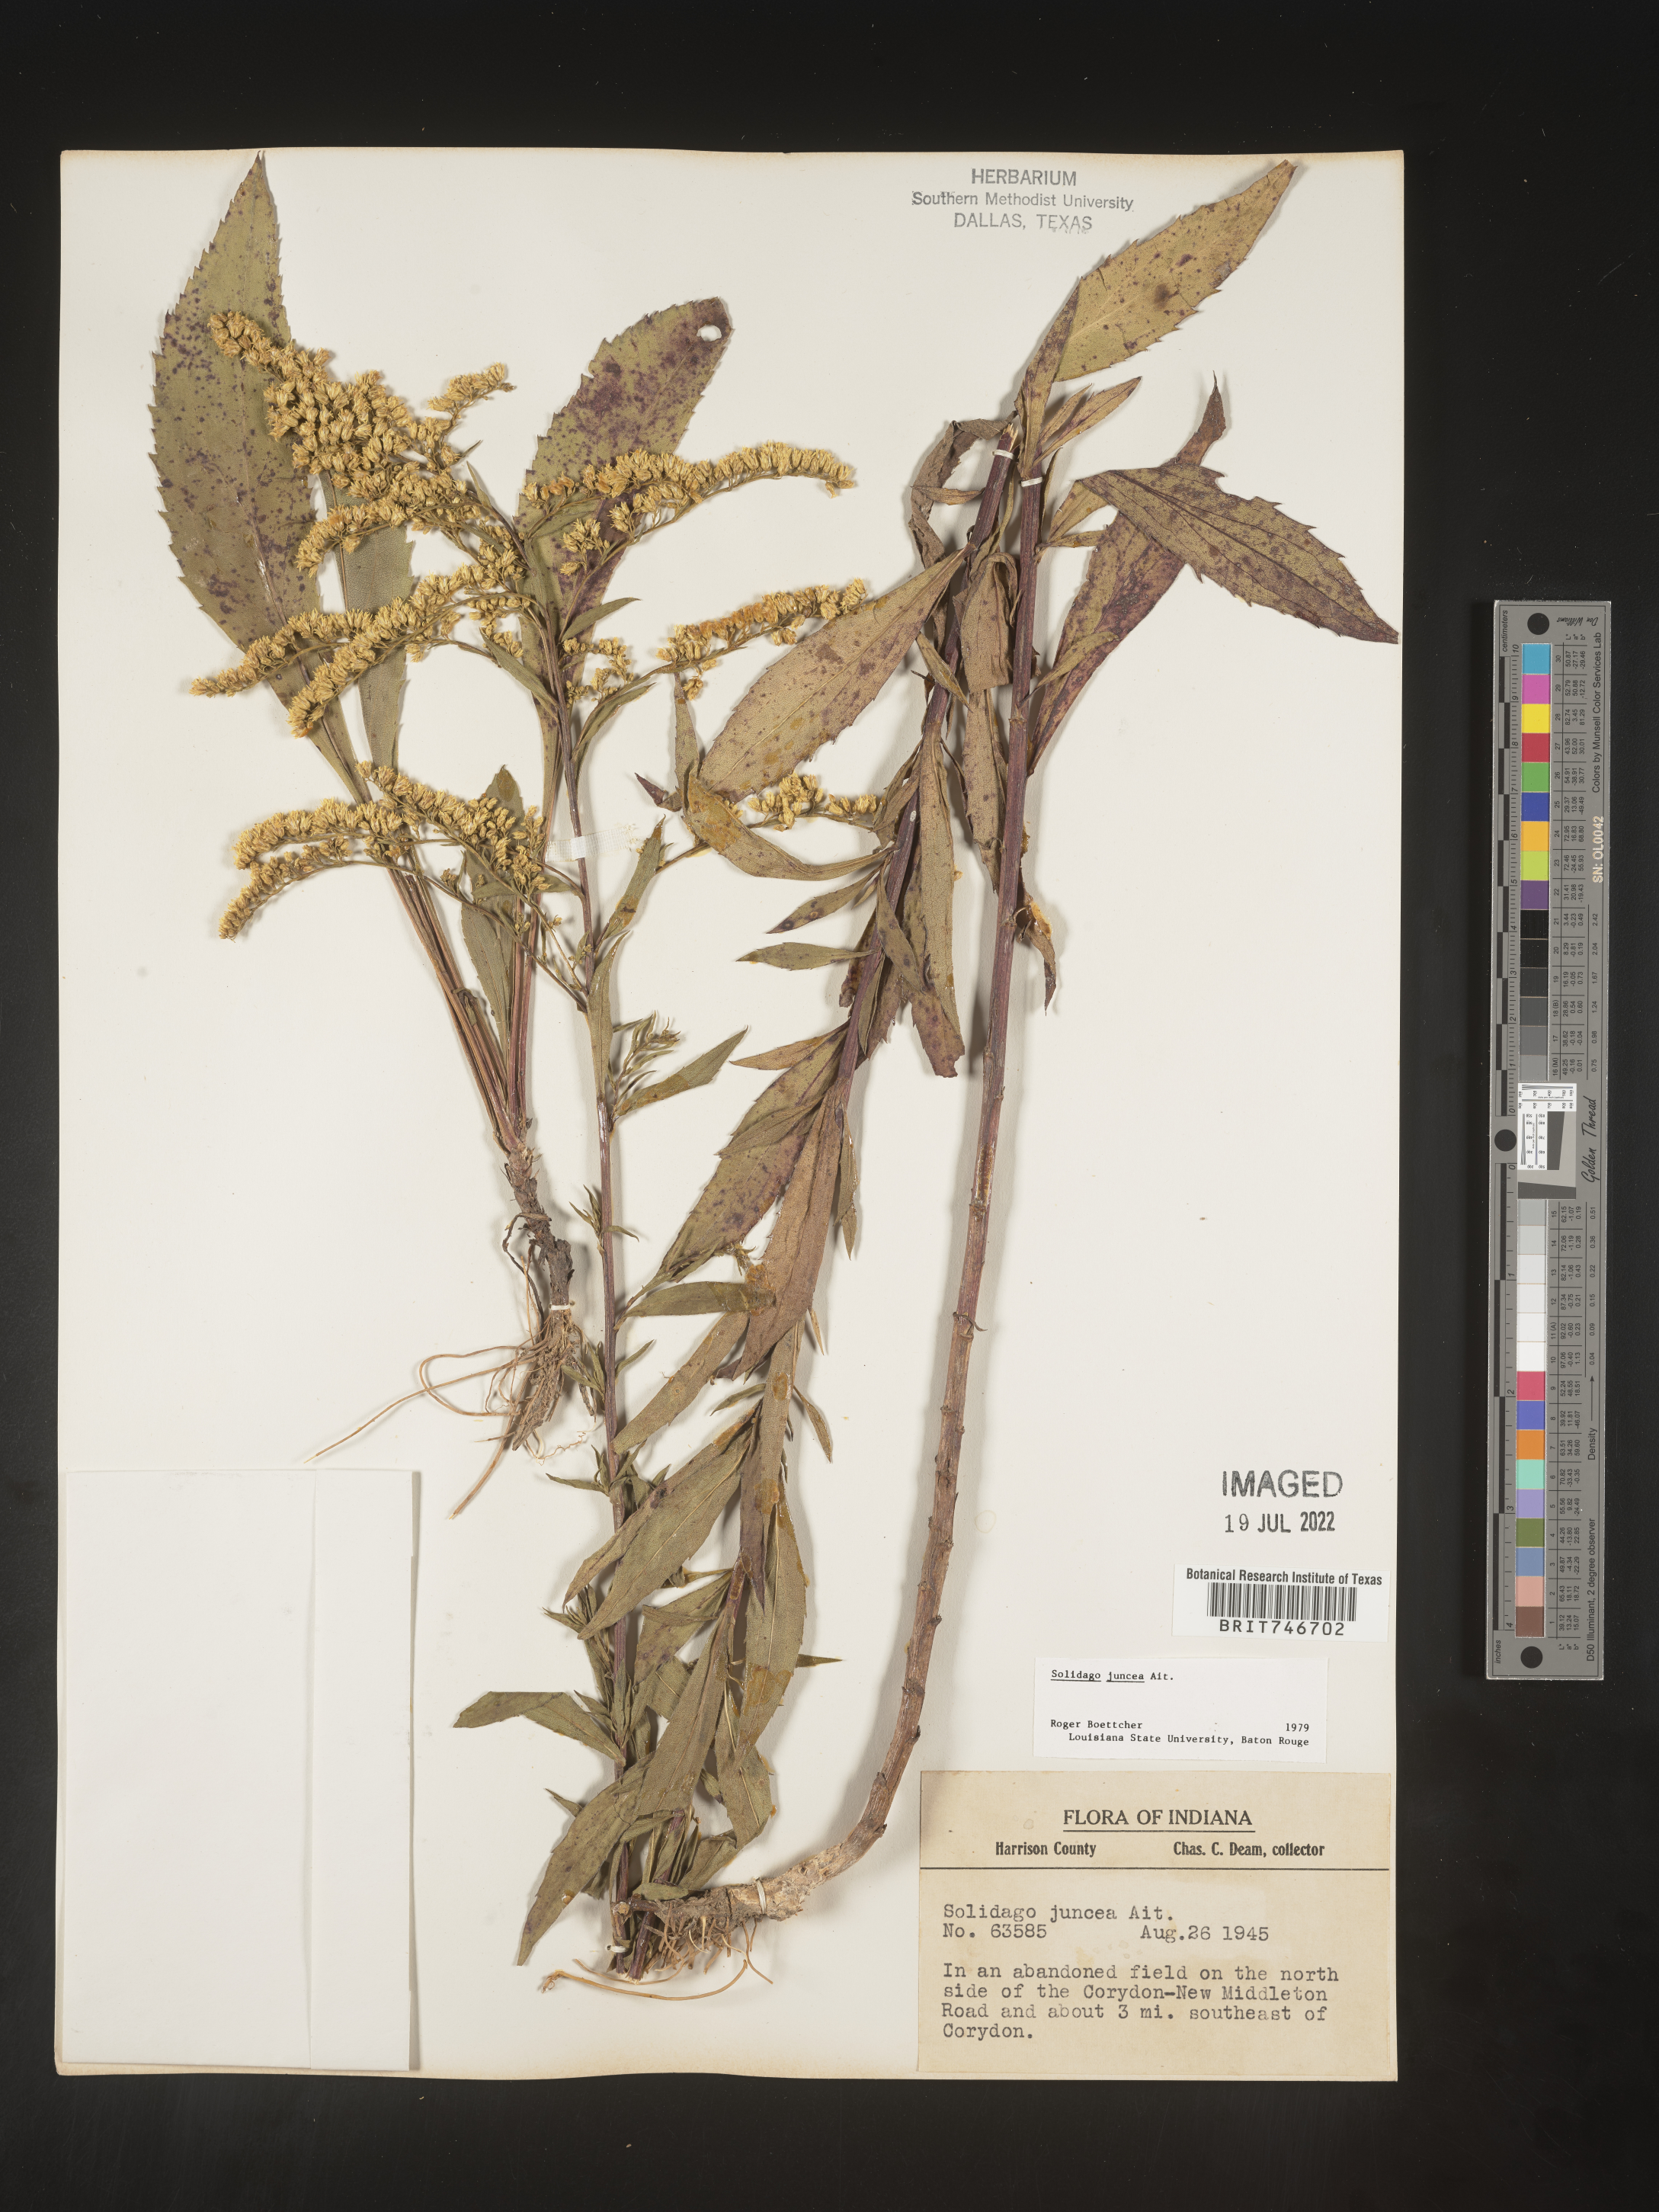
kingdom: Plantae
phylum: Tracheophyta
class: Magnoliopsida
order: Asterales
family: Asteraceae
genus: Solidago
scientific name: Solidago juncea
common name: Early goldenrod
